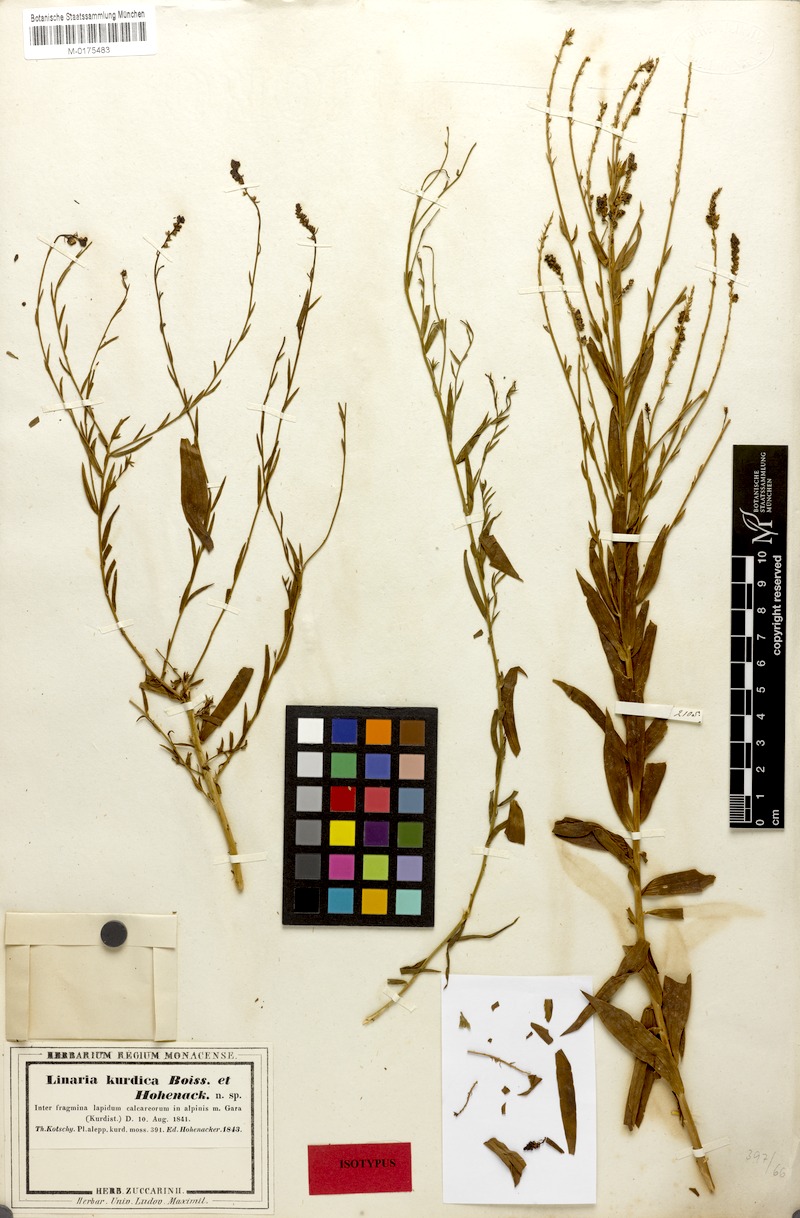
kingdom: Plantae
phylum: Tracheophyta
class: Magnoliopsida
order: Lamiales
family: Plantaginaceae
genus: Linaria
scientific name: Linaria kurdica
